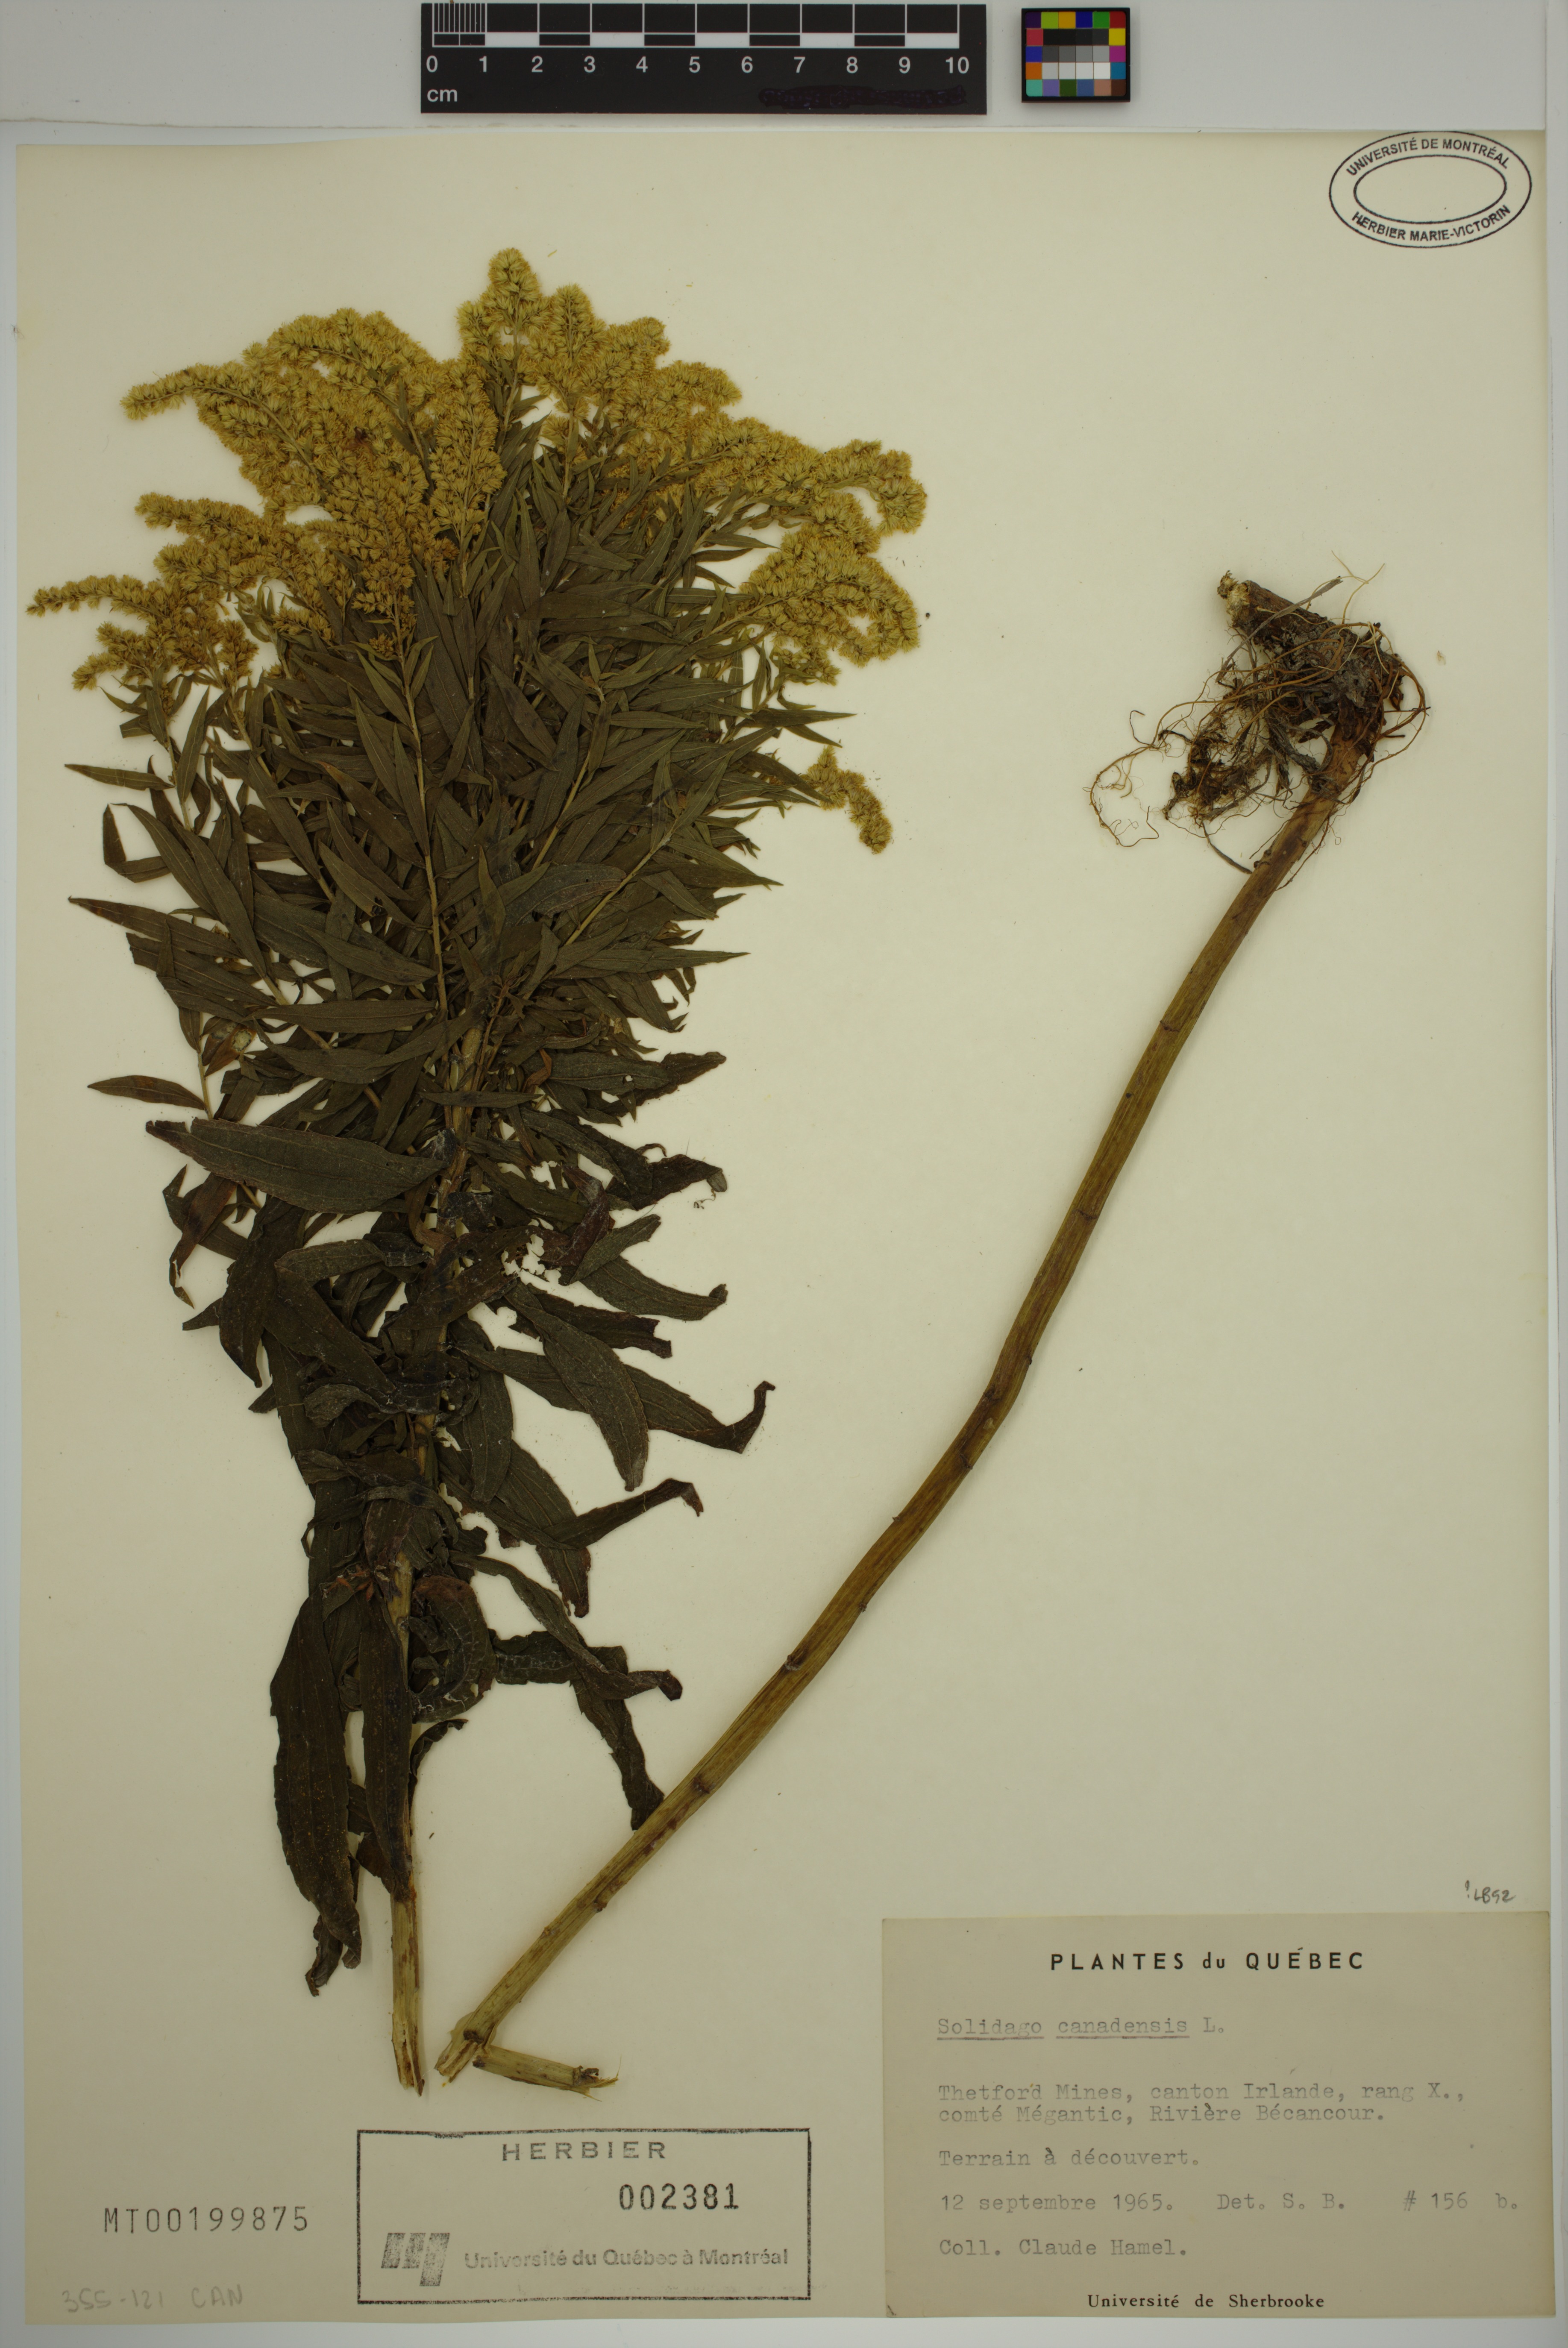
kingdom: Plantae
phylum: Tracheophyta
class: Magnoliopsida
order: Asterales
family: Asteraceae
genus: Solidago
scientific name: Solidago canadensis
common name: Canada goldenrod
